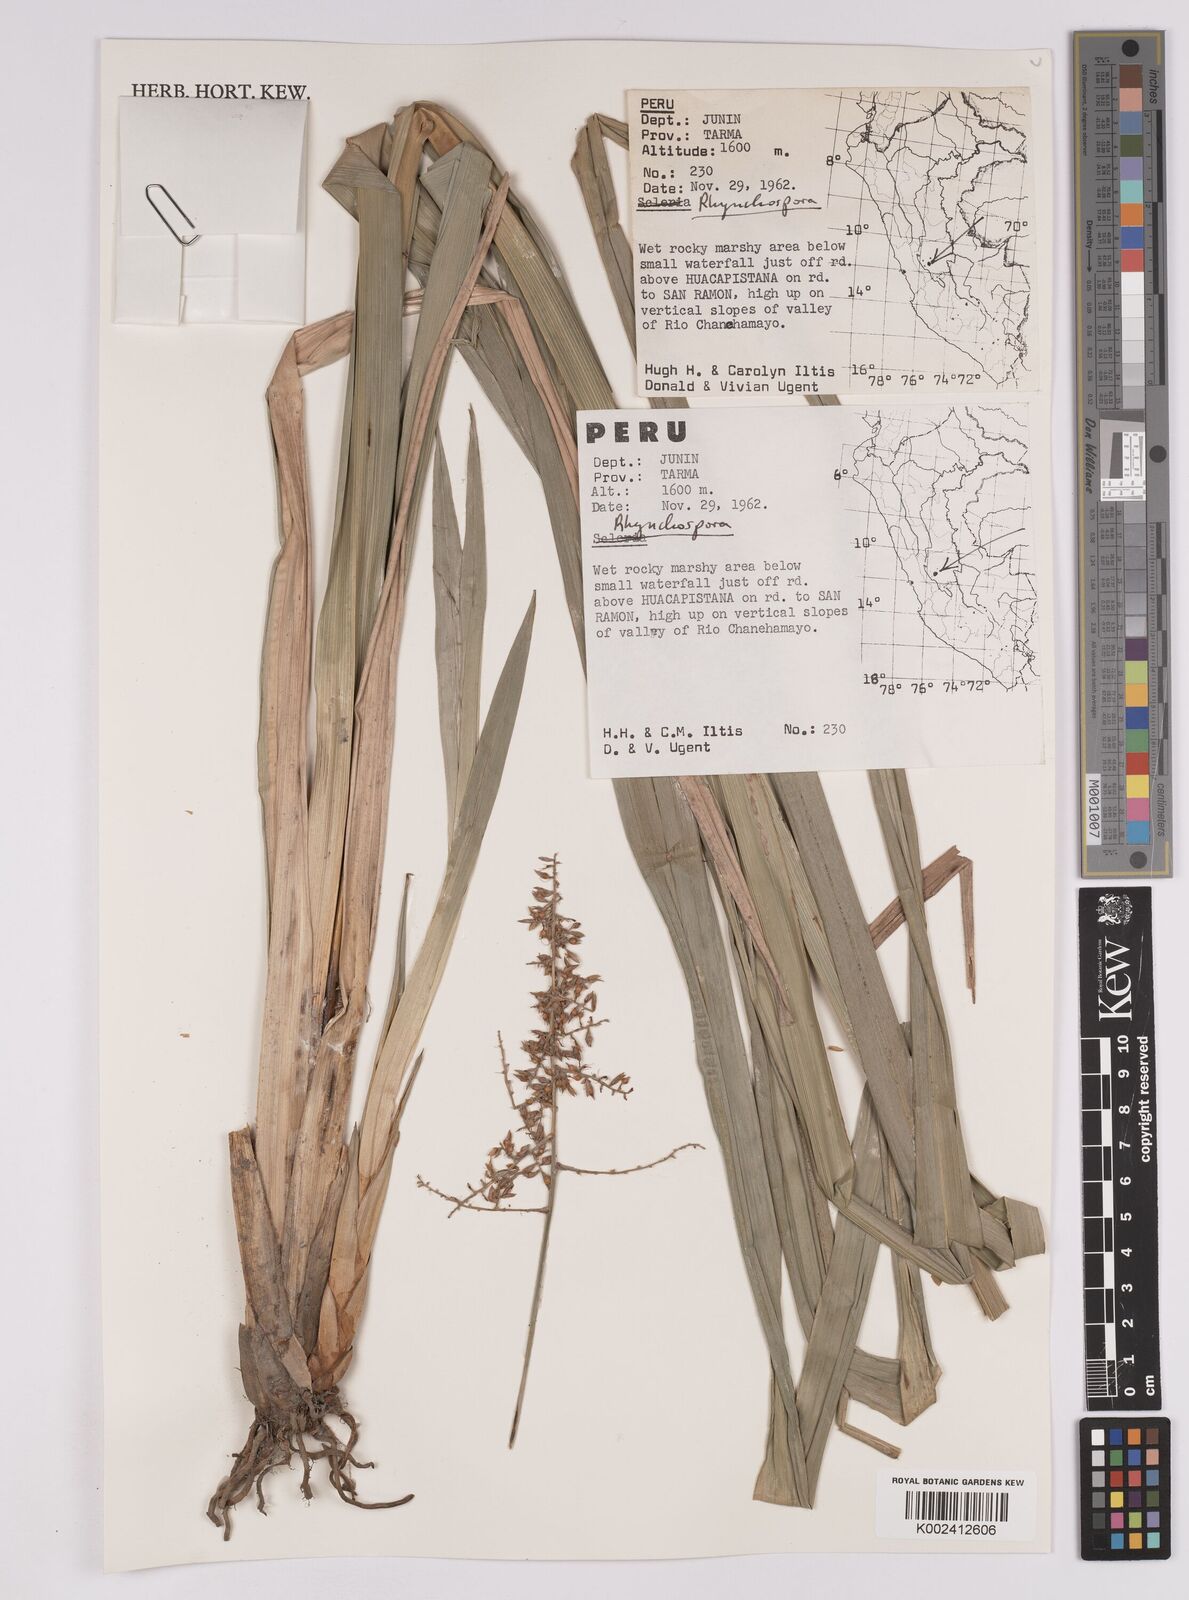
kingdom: Plantae
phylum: Tracheophyta
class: Liliopsida
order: Poales
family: Cyperaceae
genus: Rhynchospora
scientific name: Rhynchospora
